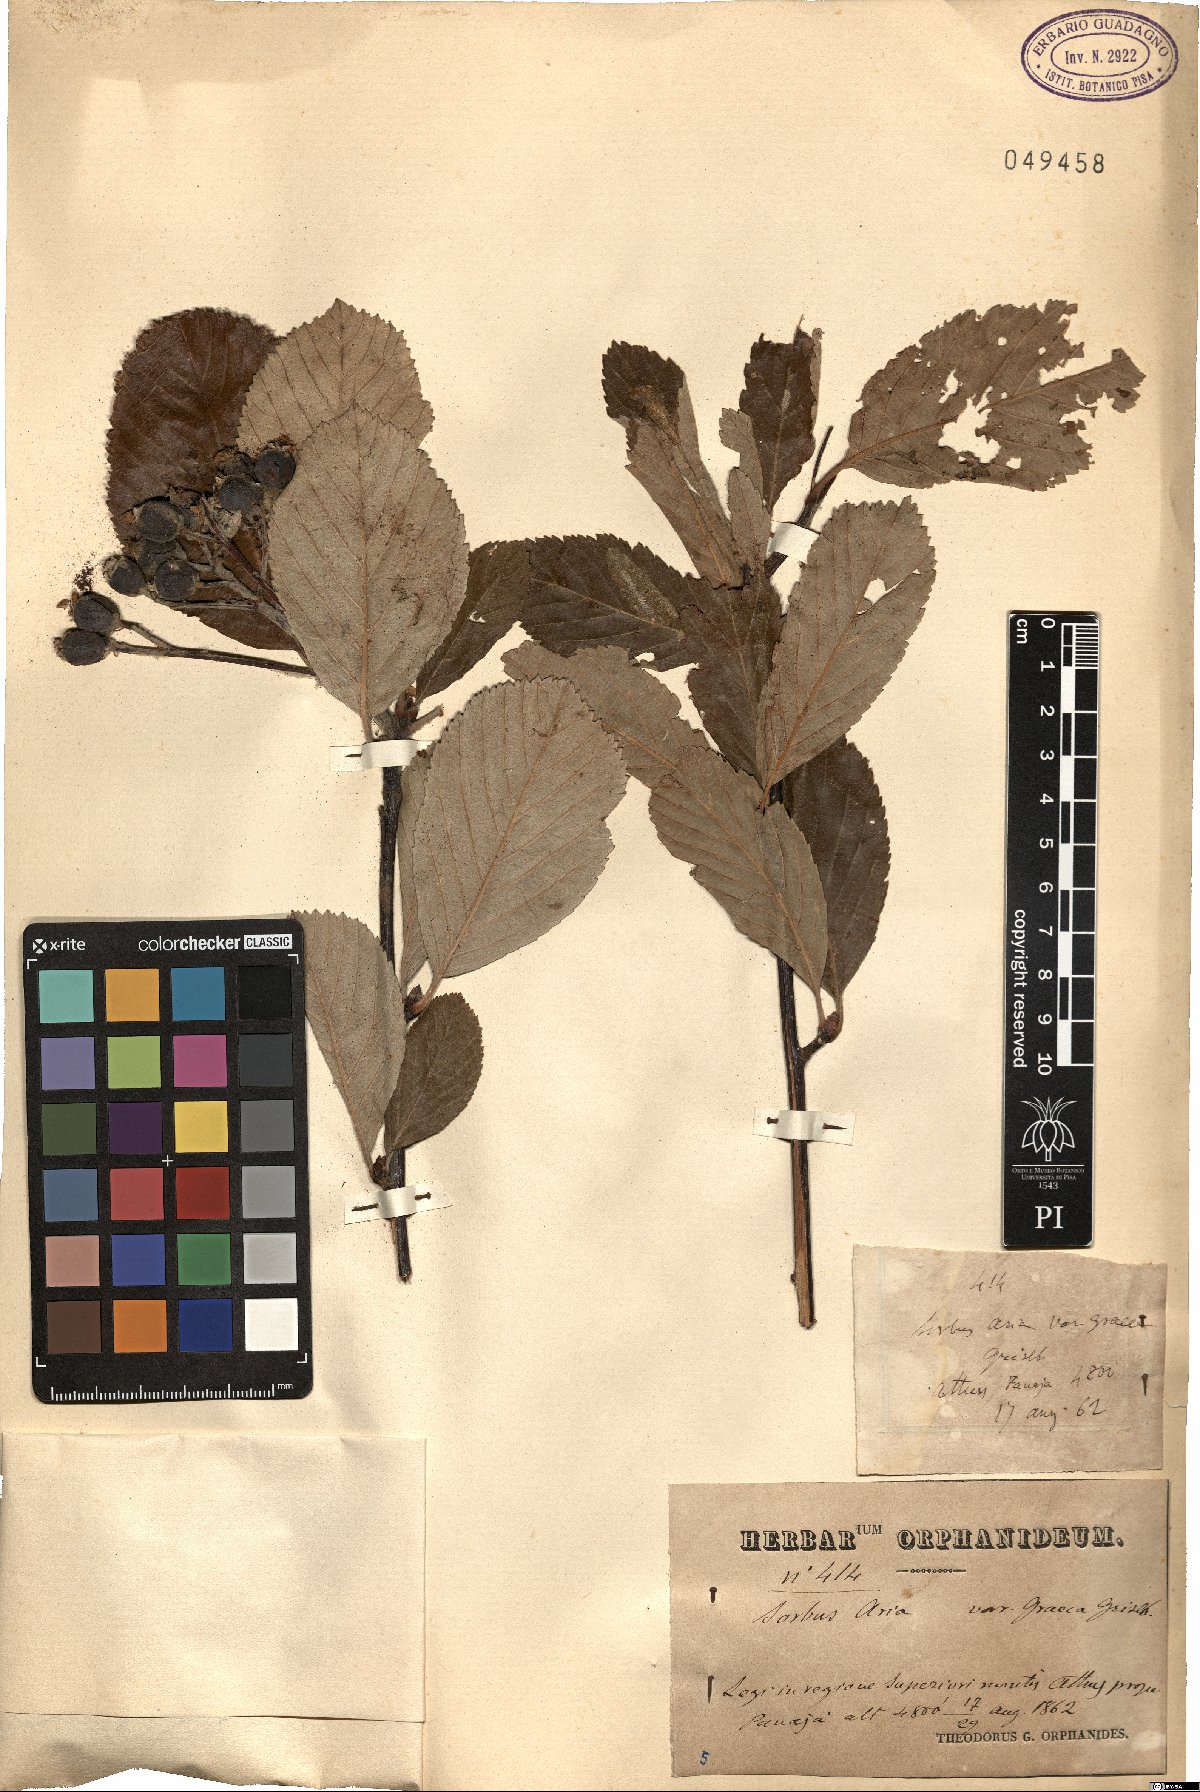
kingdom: Plantae
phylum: Tracheophyta
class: Magnoliopsida
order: Rosales
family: Rosaceae
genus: Aria
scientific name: Aria graeca
